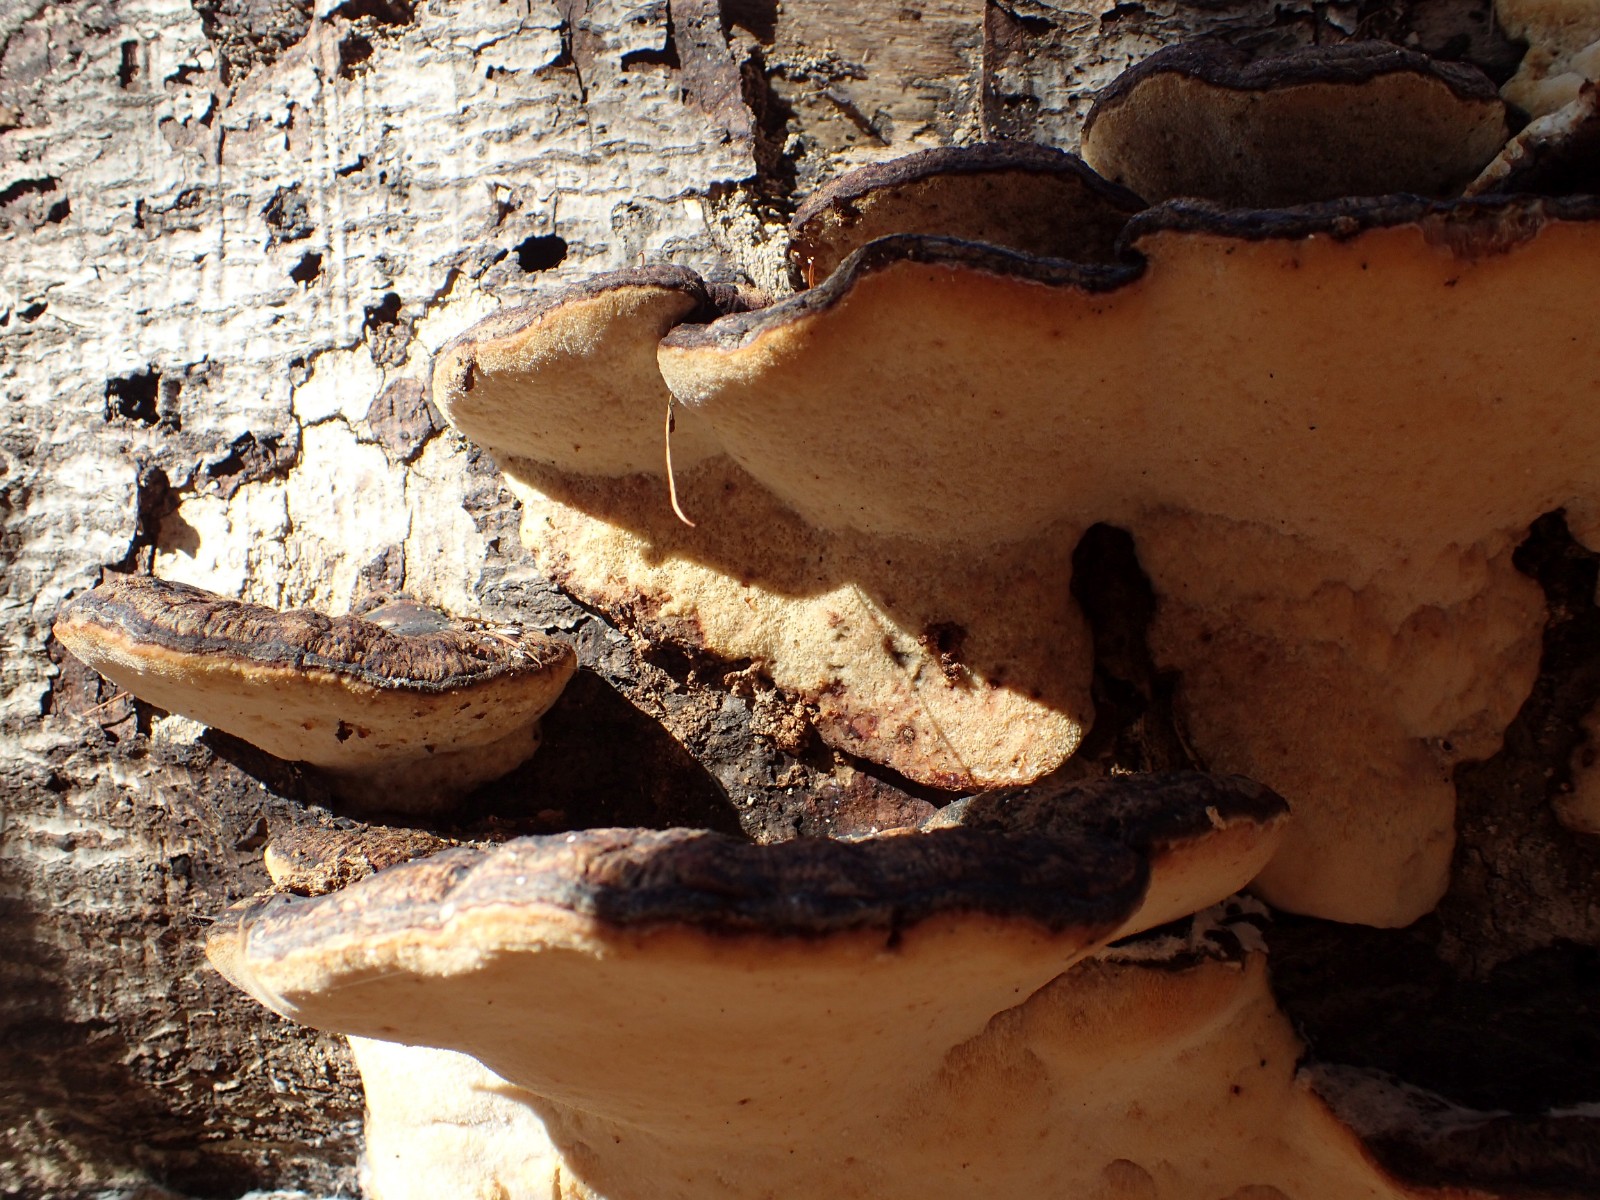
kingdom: Fungi
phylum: Basidiomycota
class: Agaricomycetes
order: Polyporales
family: Ischnodermataceae
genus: Ischnoderma
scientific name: Ischnoderma resinosum
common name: løv-tjæreporesvamp
